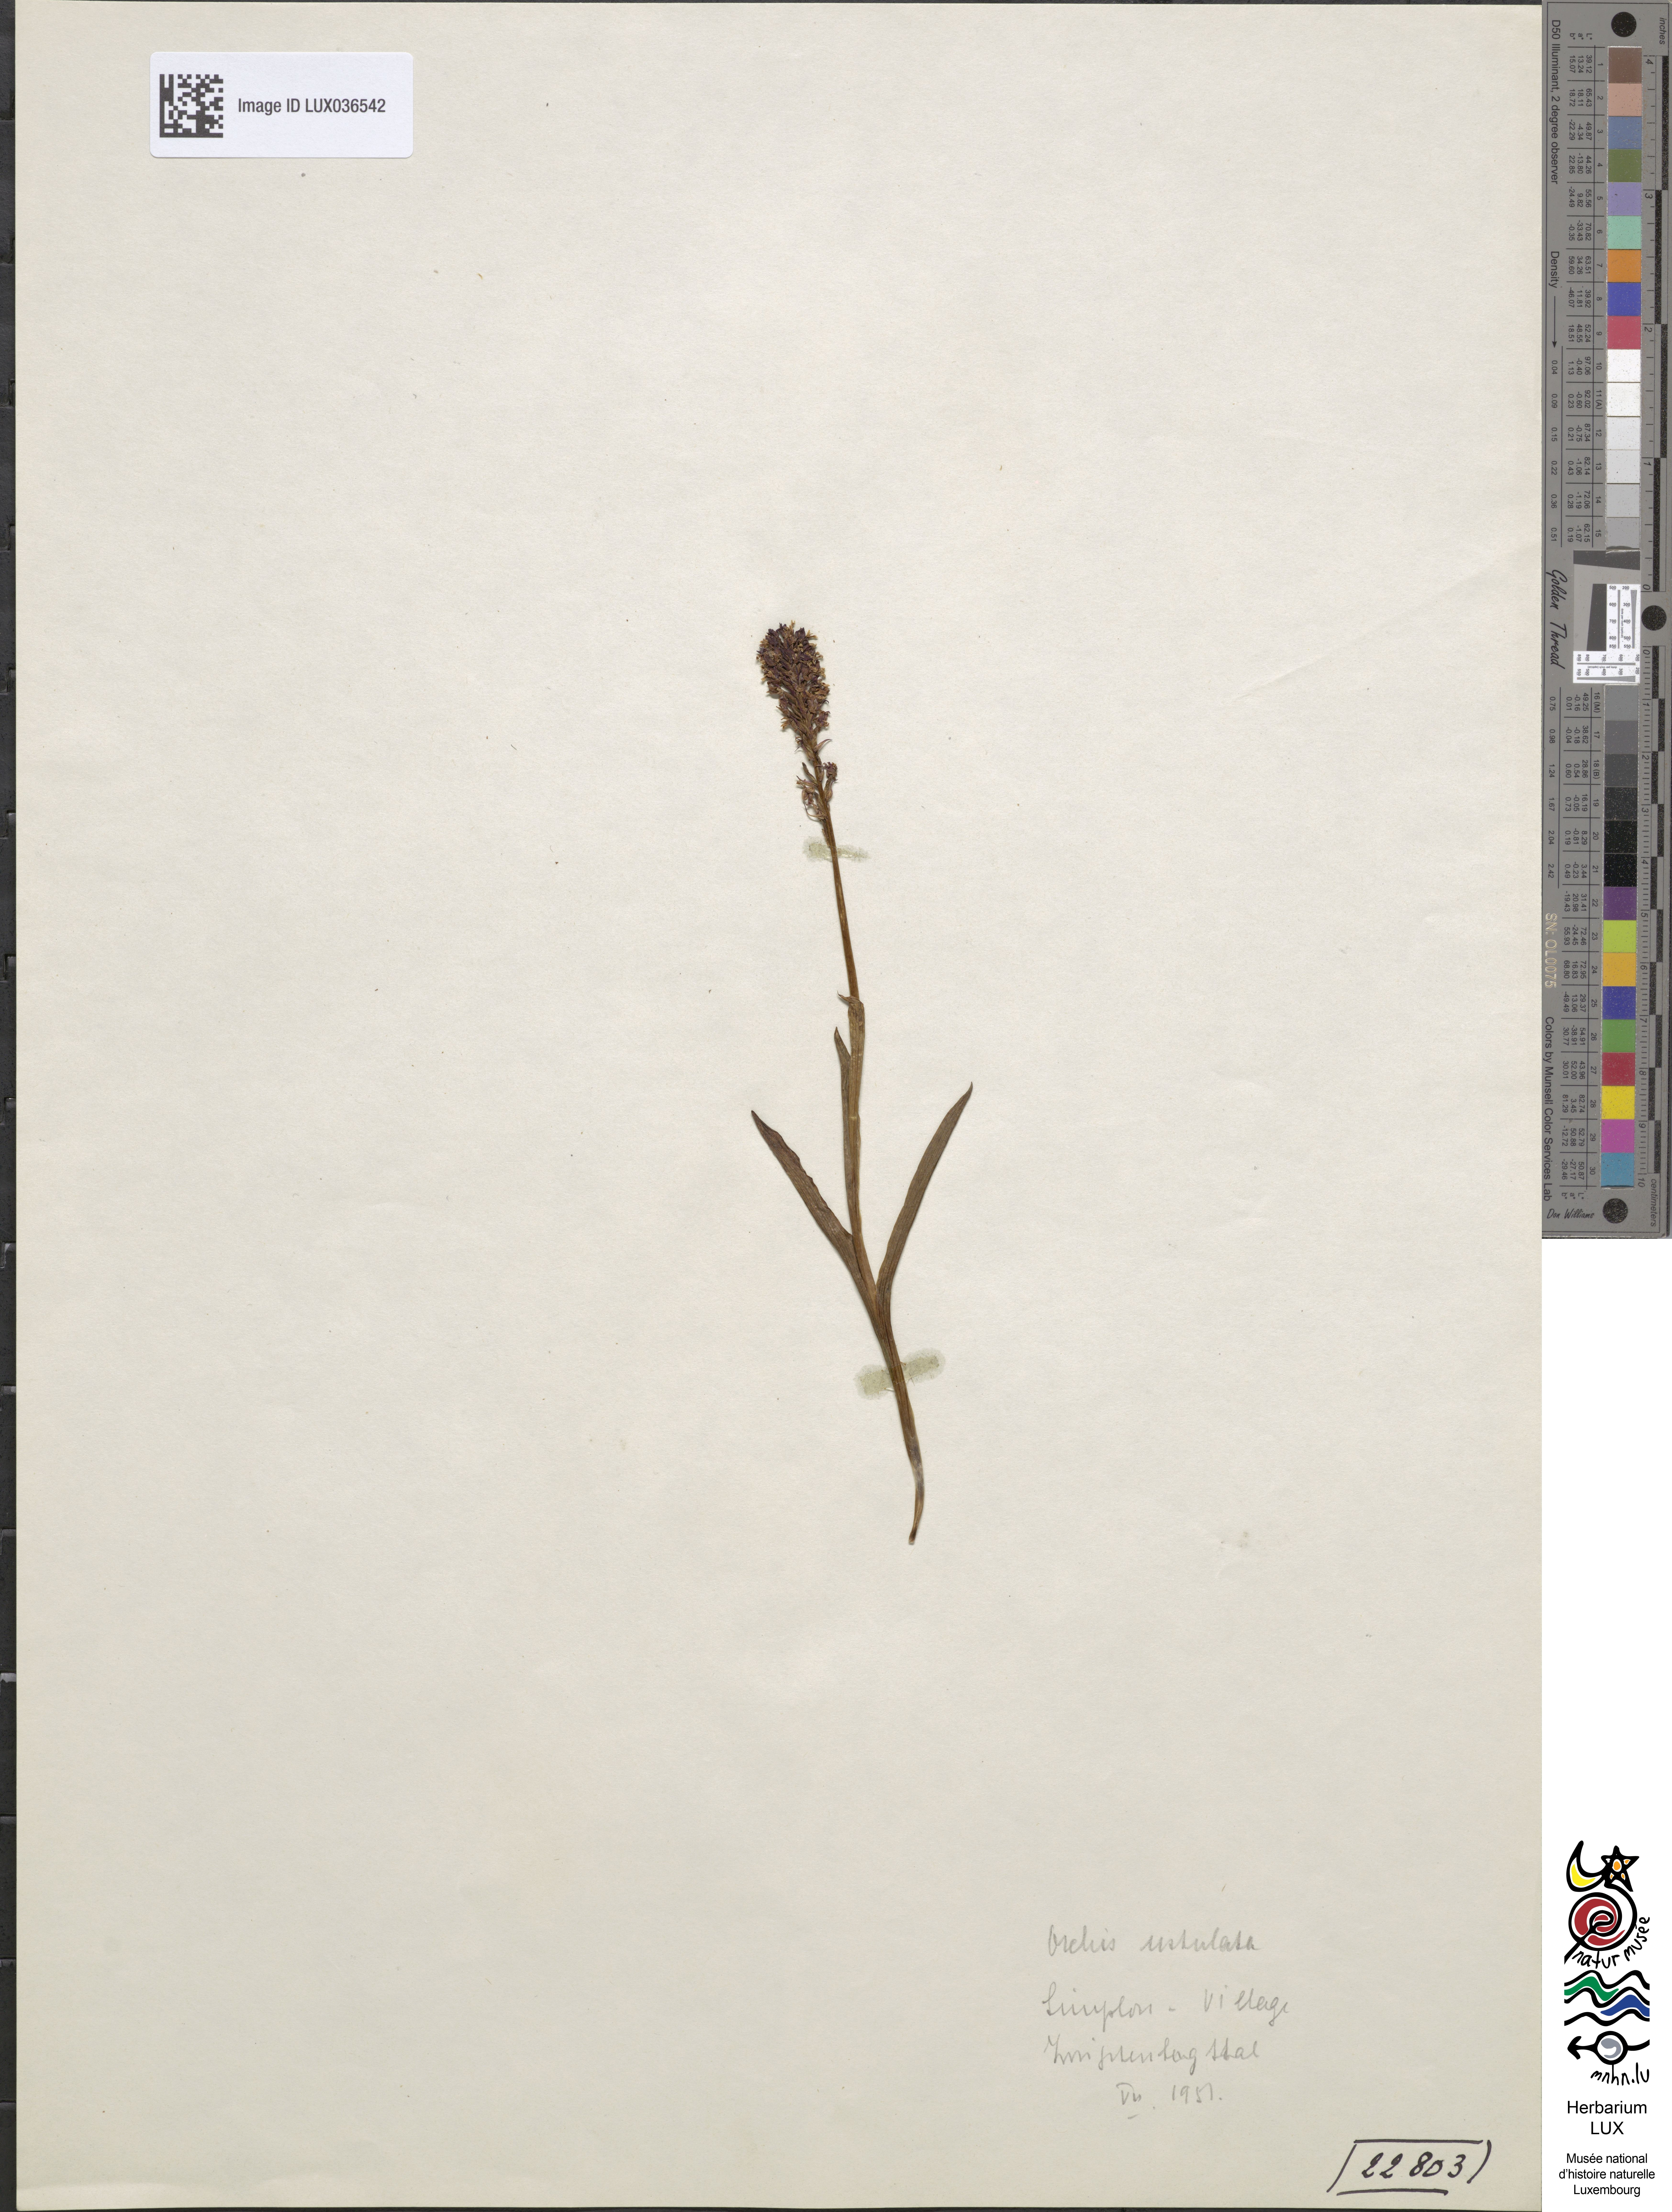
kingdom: Plantae
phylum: Tracheophyta
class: Liliopsida
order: Asparagales
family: Orchidaceae
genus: Neotinea
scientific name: Neotinea ustulata
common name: Burnt orchid
